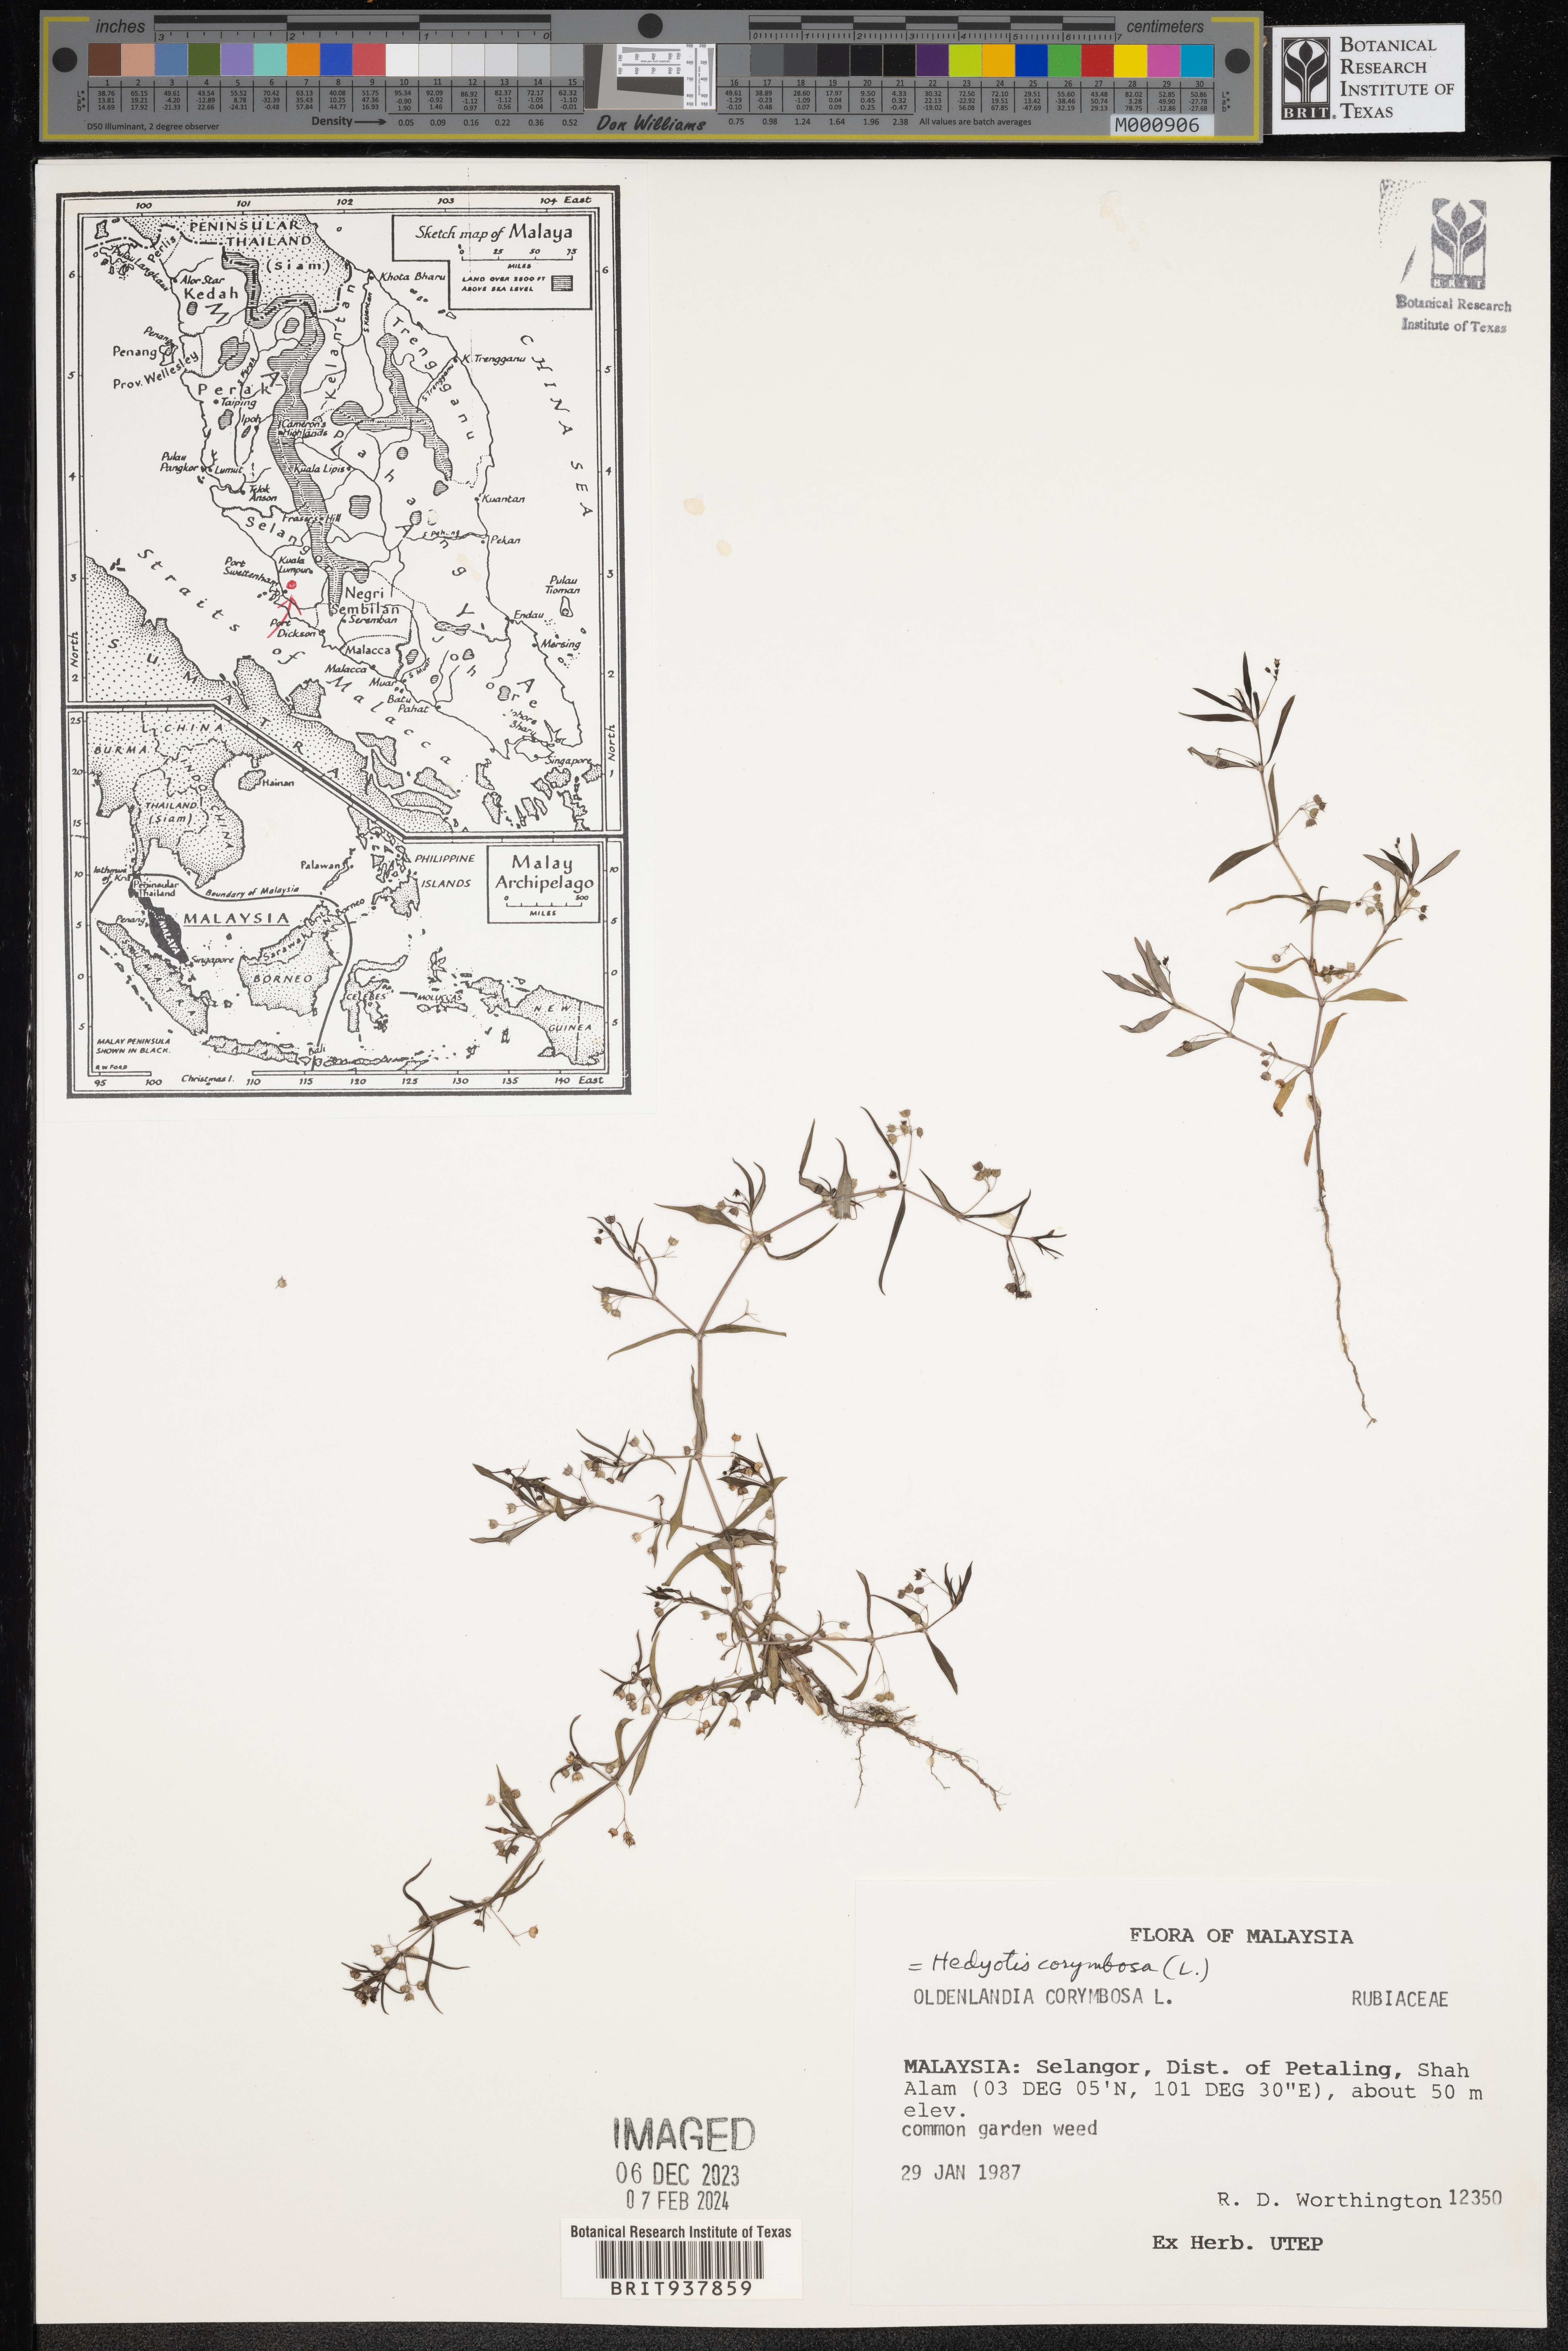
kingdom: Plantae
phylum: Tracheophyta
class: Magnoliopsida
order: Gentianales
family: Rubiaceae
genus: Hedyotis
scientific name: Hedyotis
